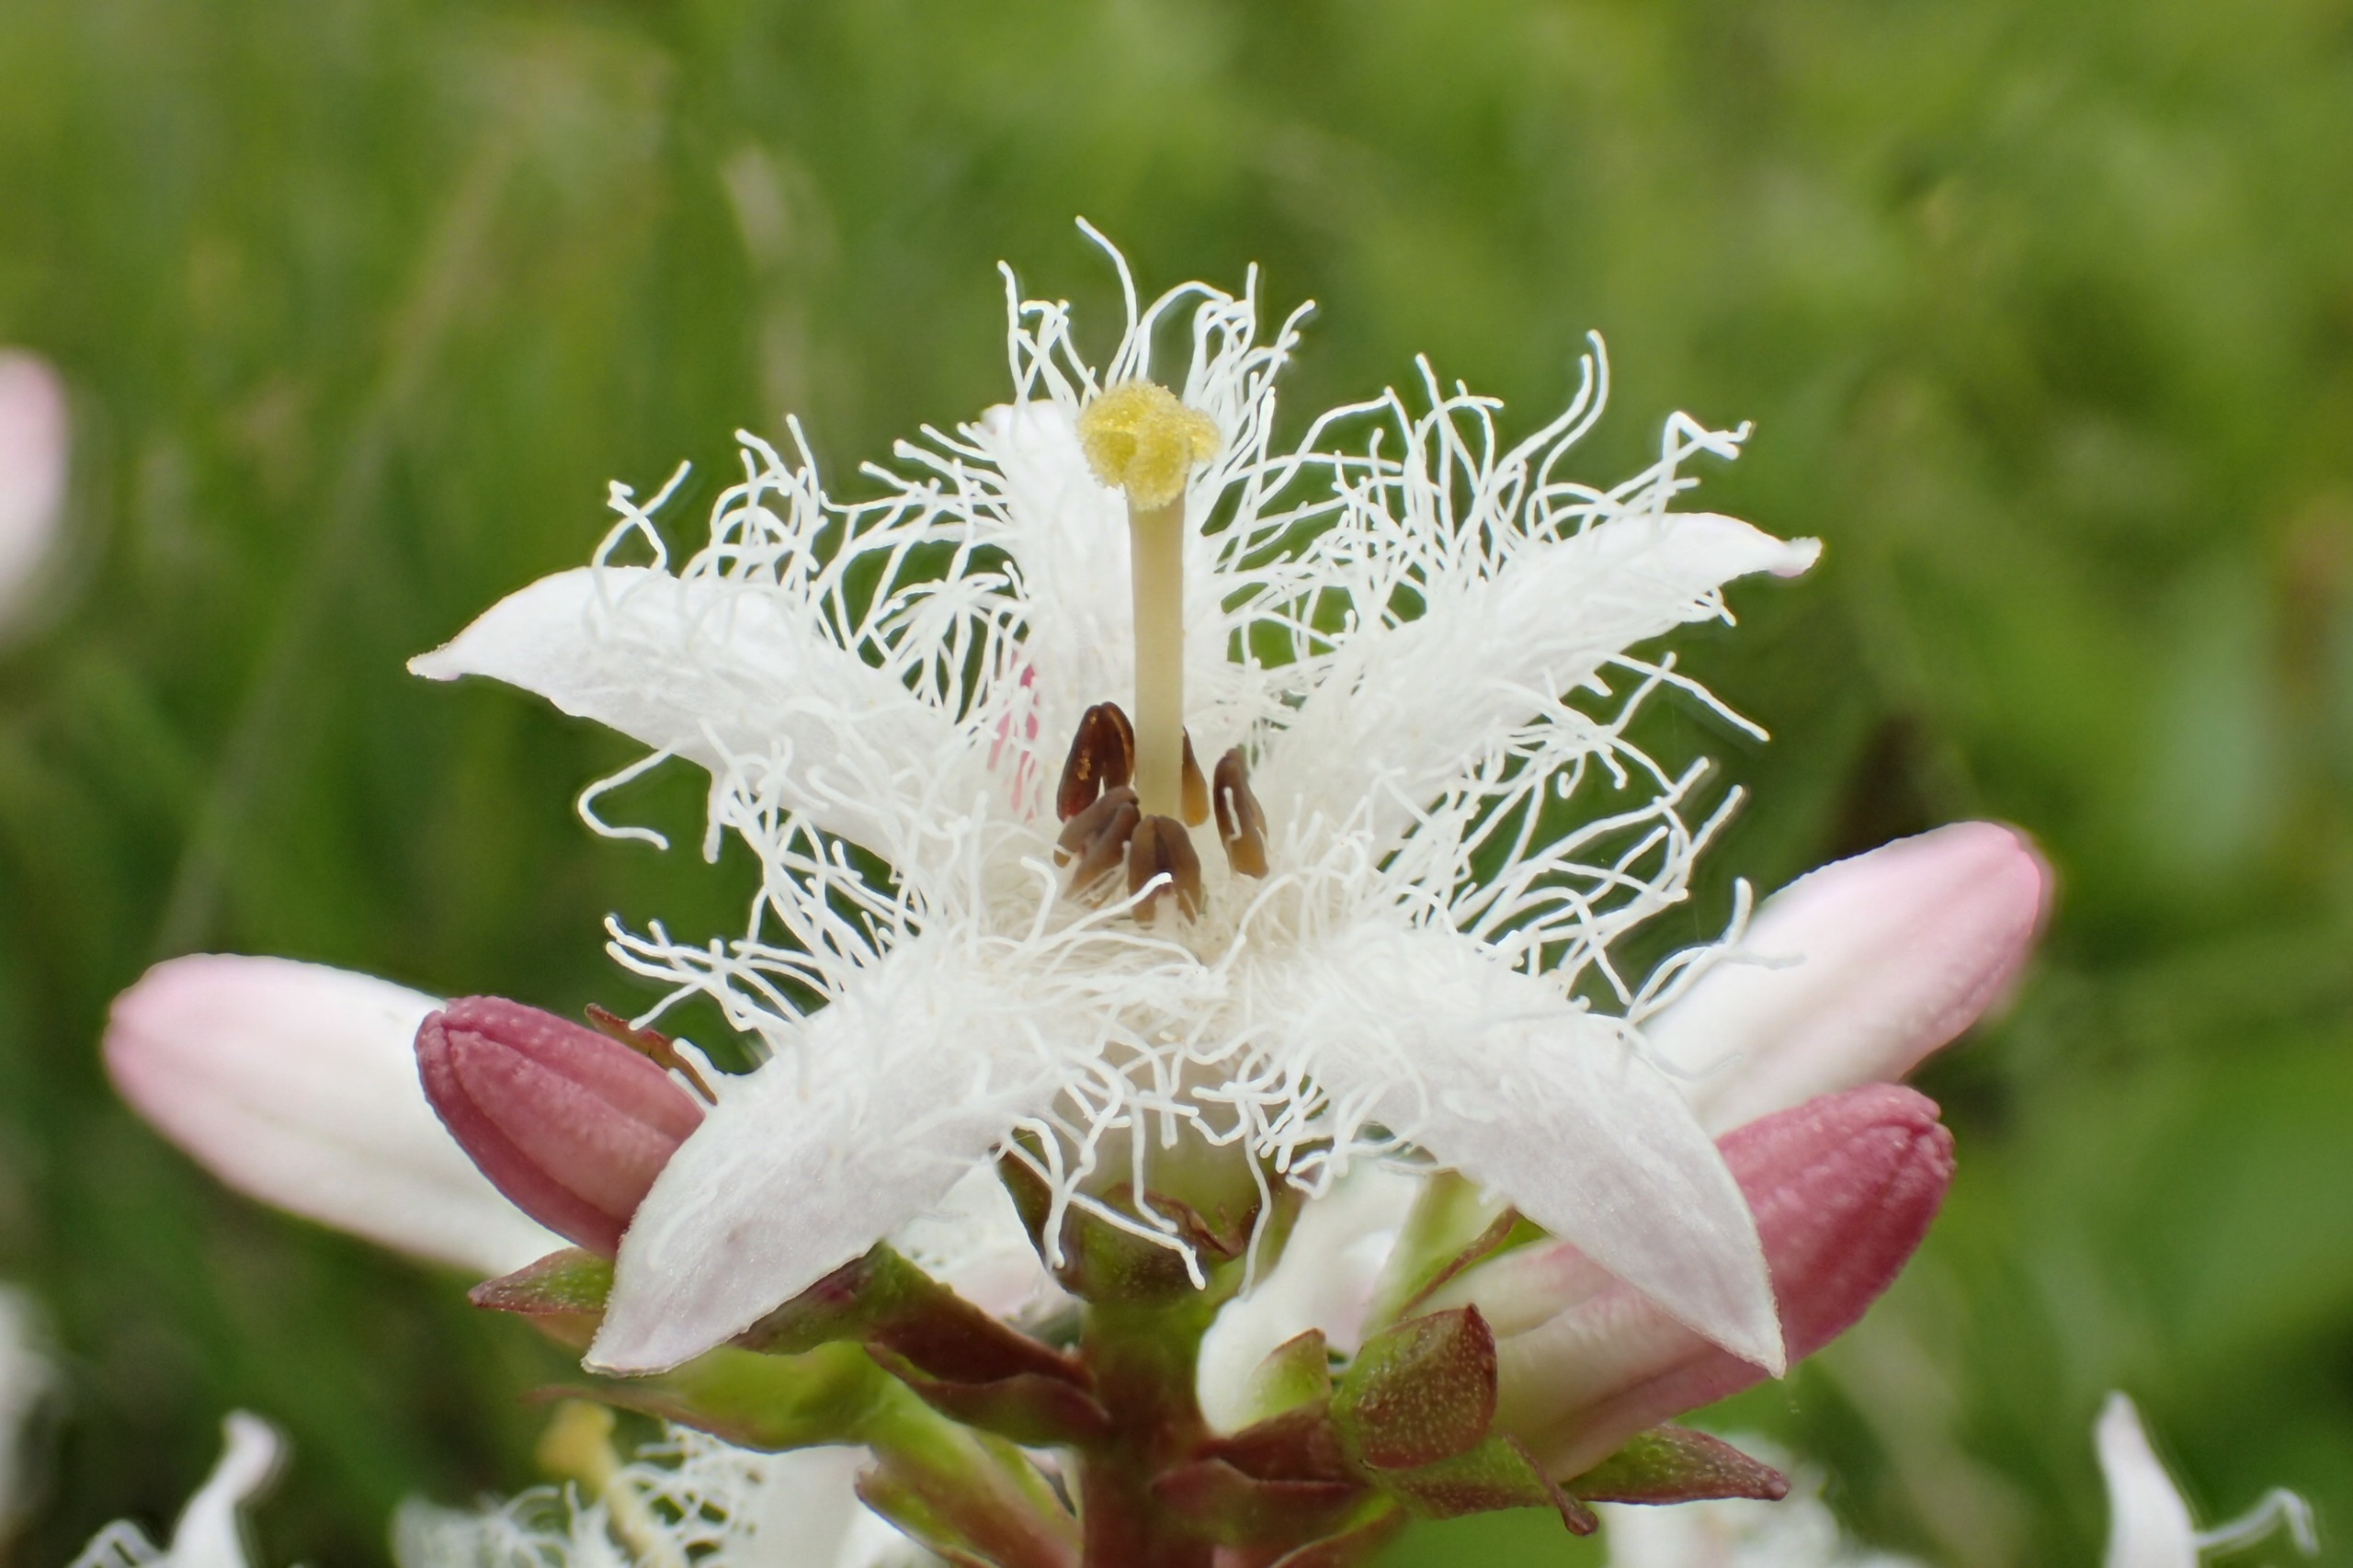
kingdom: Plantae
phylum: Tracheophyta
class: Magnoliopsida
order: Asterales
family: Menyanthaceae
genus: Menyanthes
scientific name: Menyanthes trifoliata
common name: Bukkeblad
